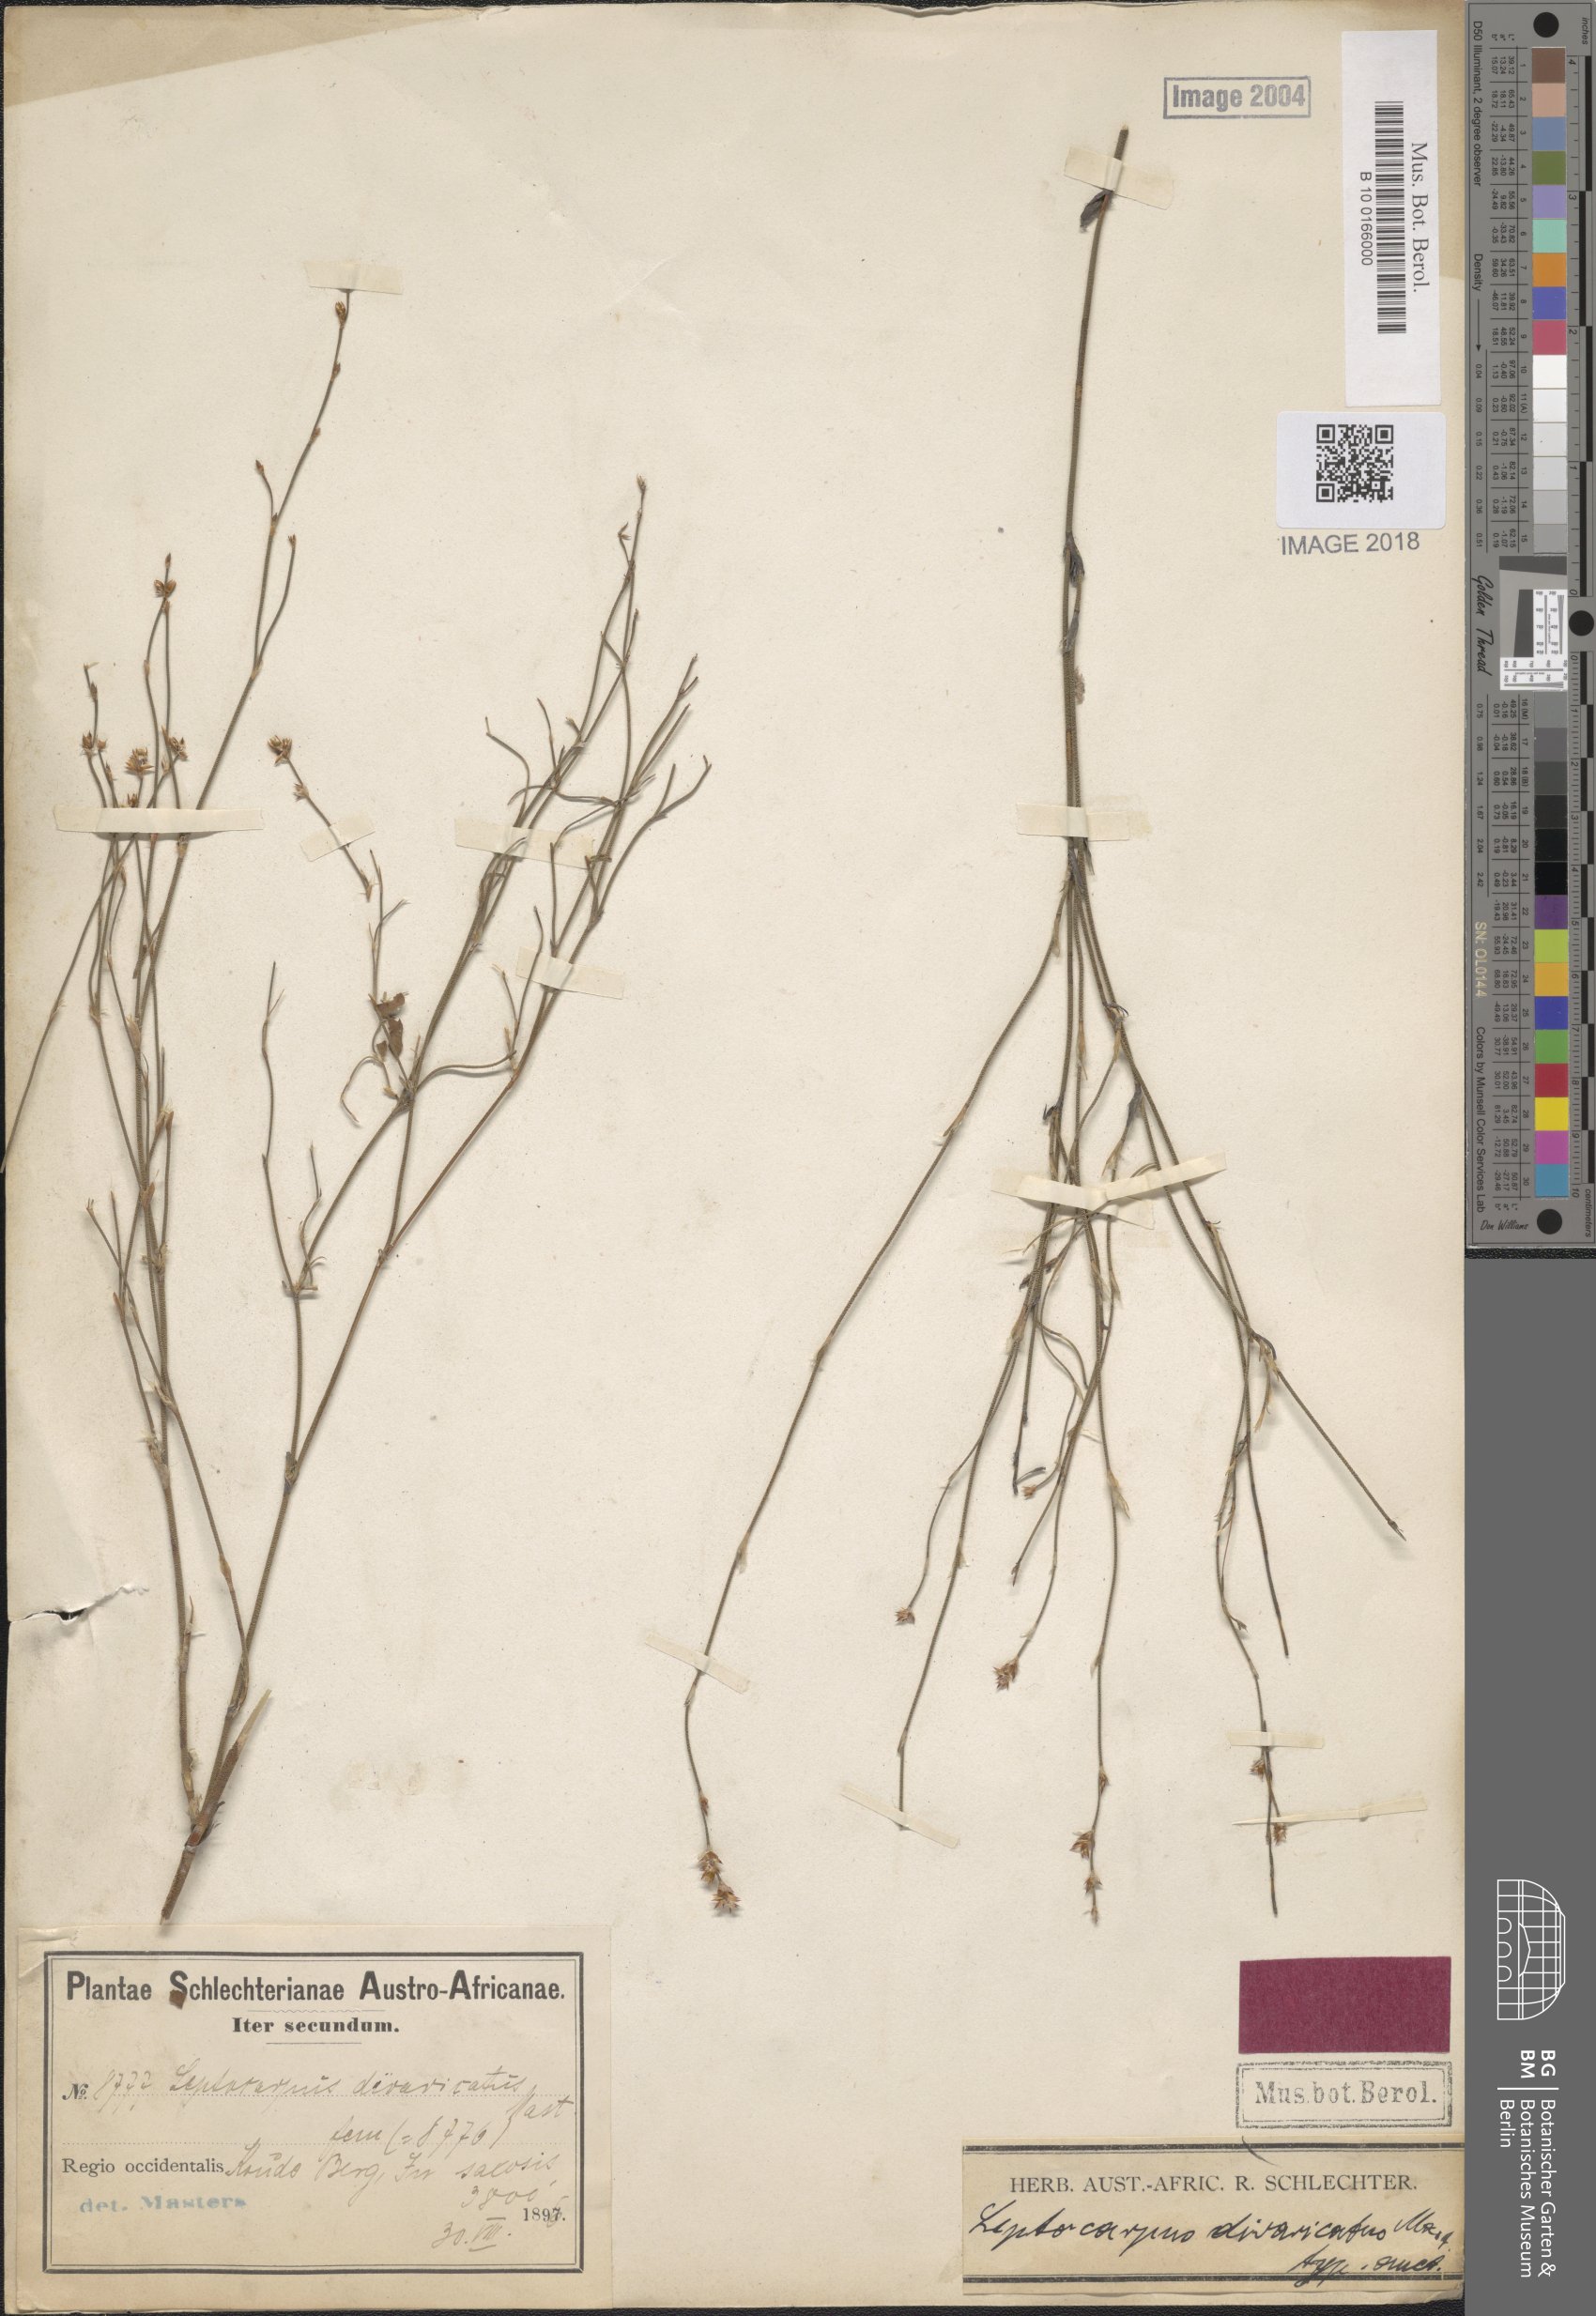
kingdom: Plantae
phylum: Tracheophyta
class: Liliopsida
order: Poales
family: Restionaceae
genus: Restio
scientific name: Restio tuberculatus
